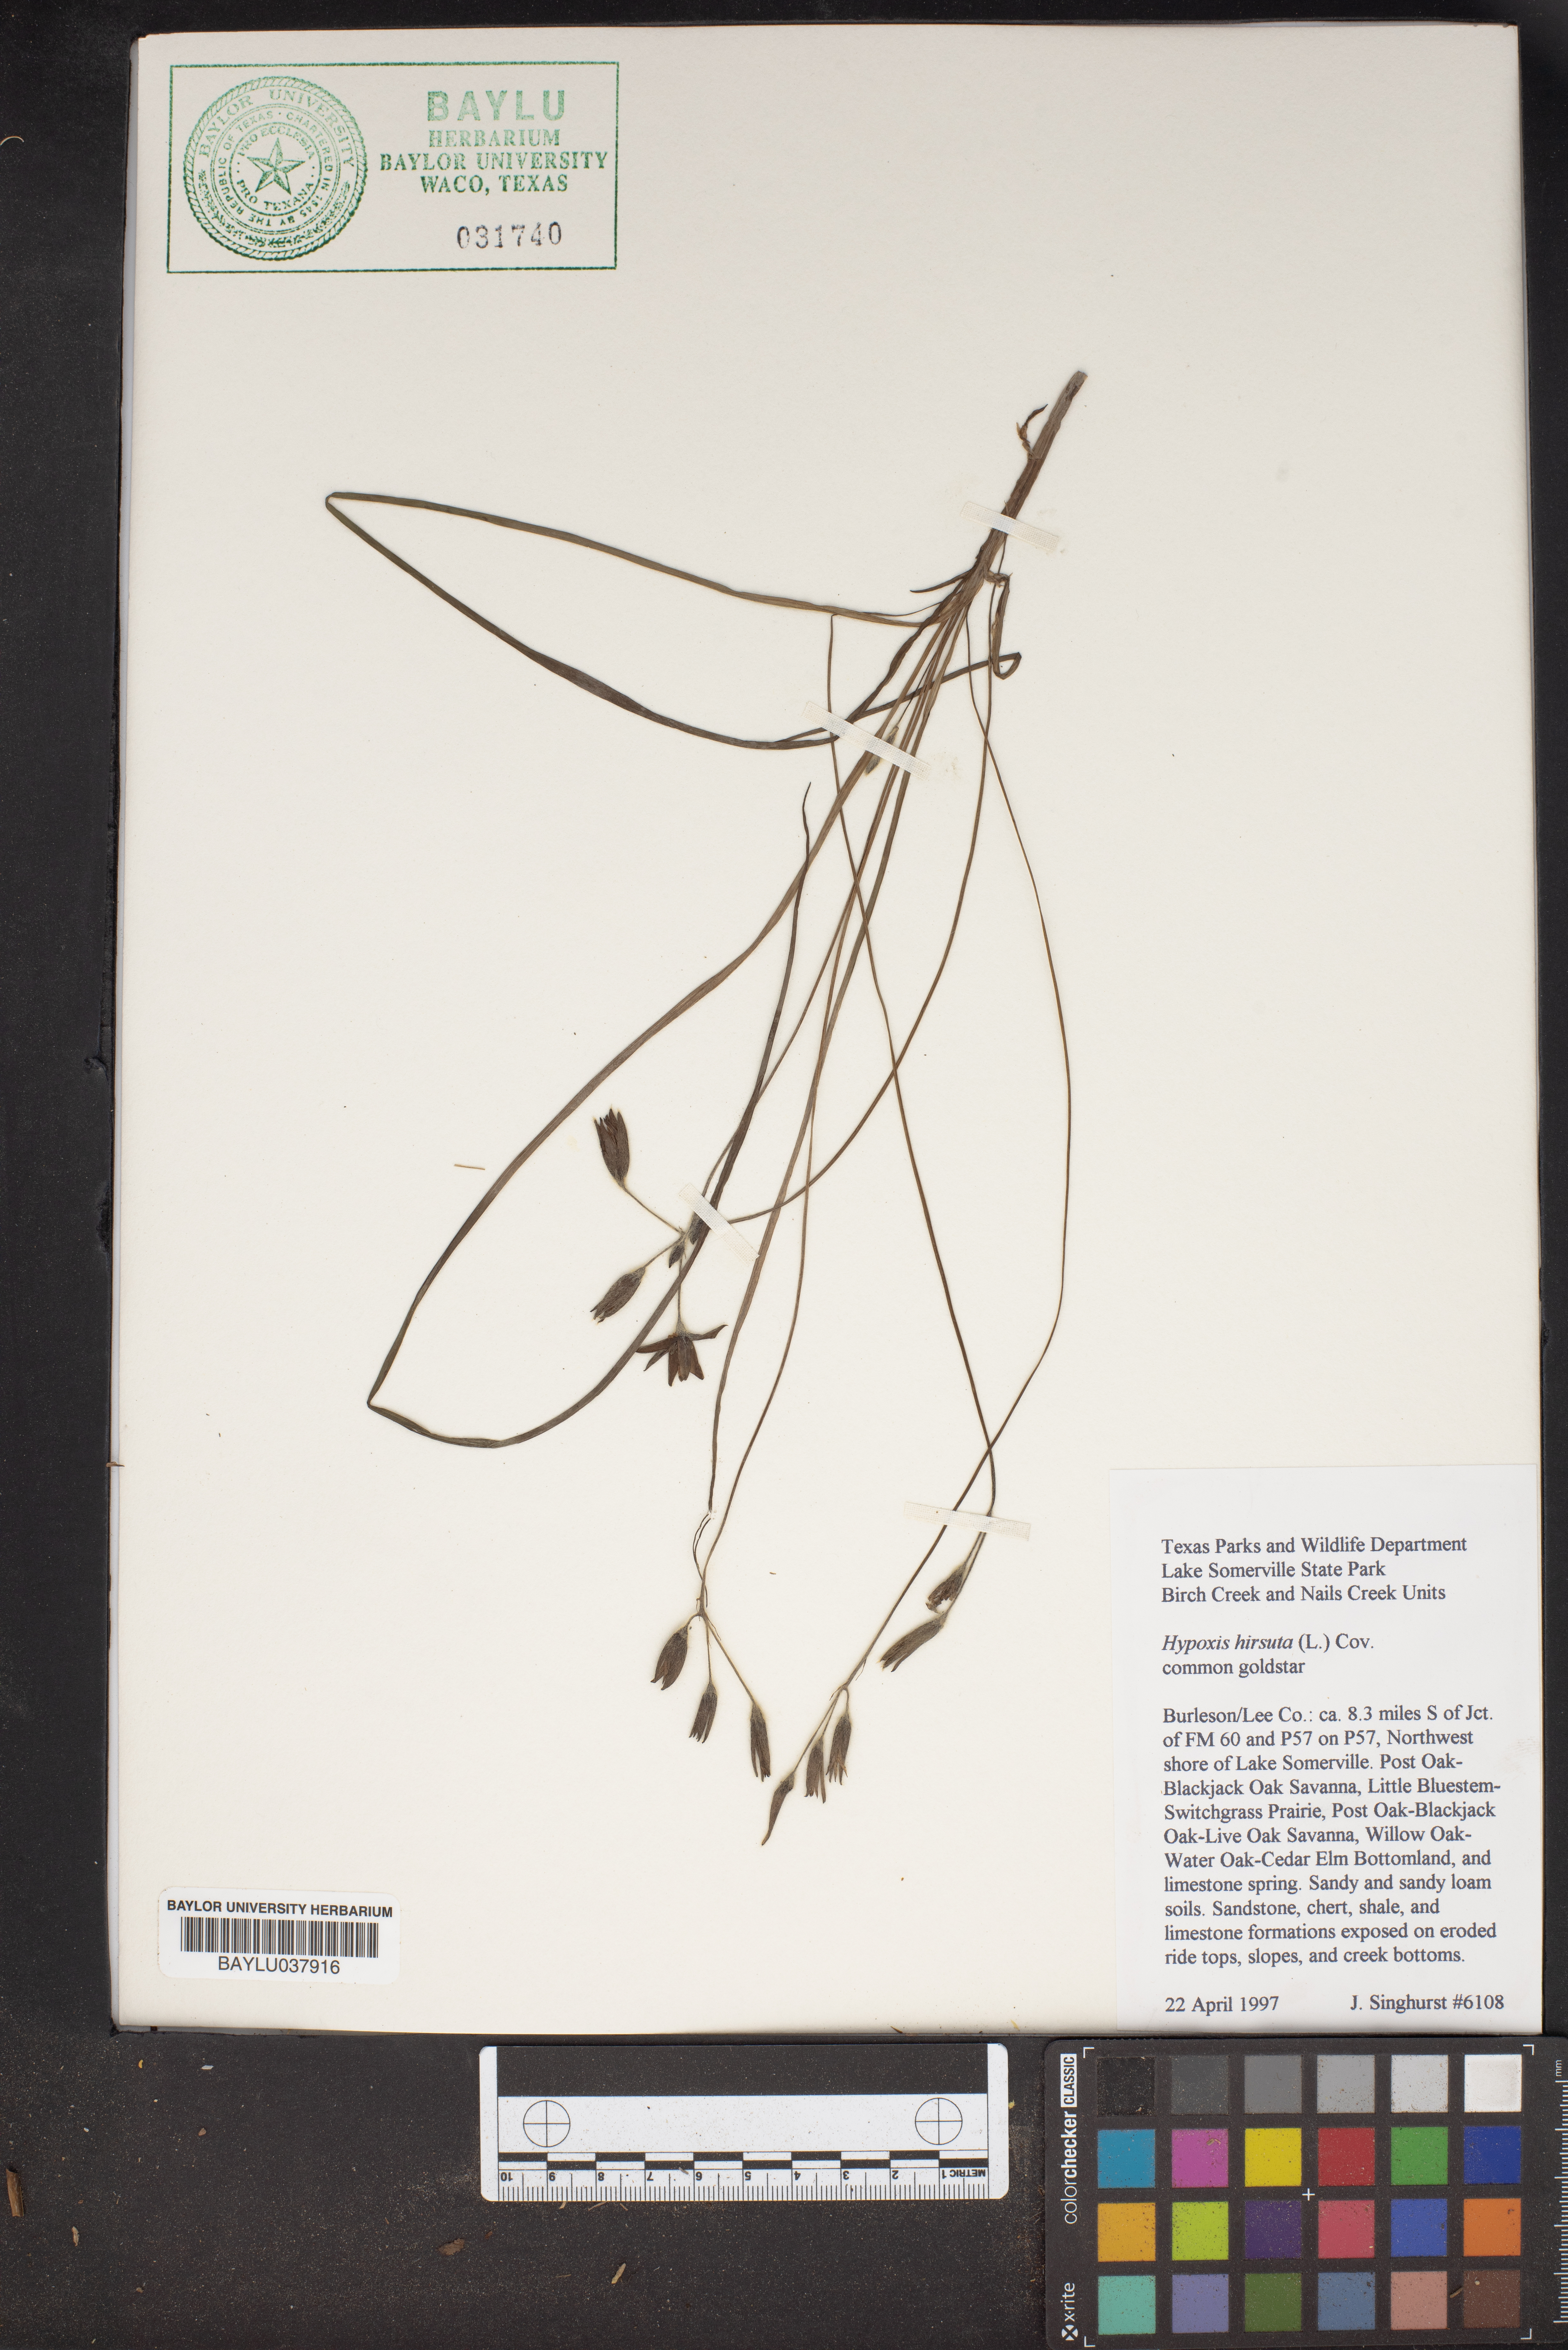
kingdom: Plantae
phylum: Tracheophyta
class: Liliopsida
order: Asparagales
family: Hypoxidaceae
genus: Hypoxis
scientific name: Hypoxis hirsuta
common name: Common goldstar
